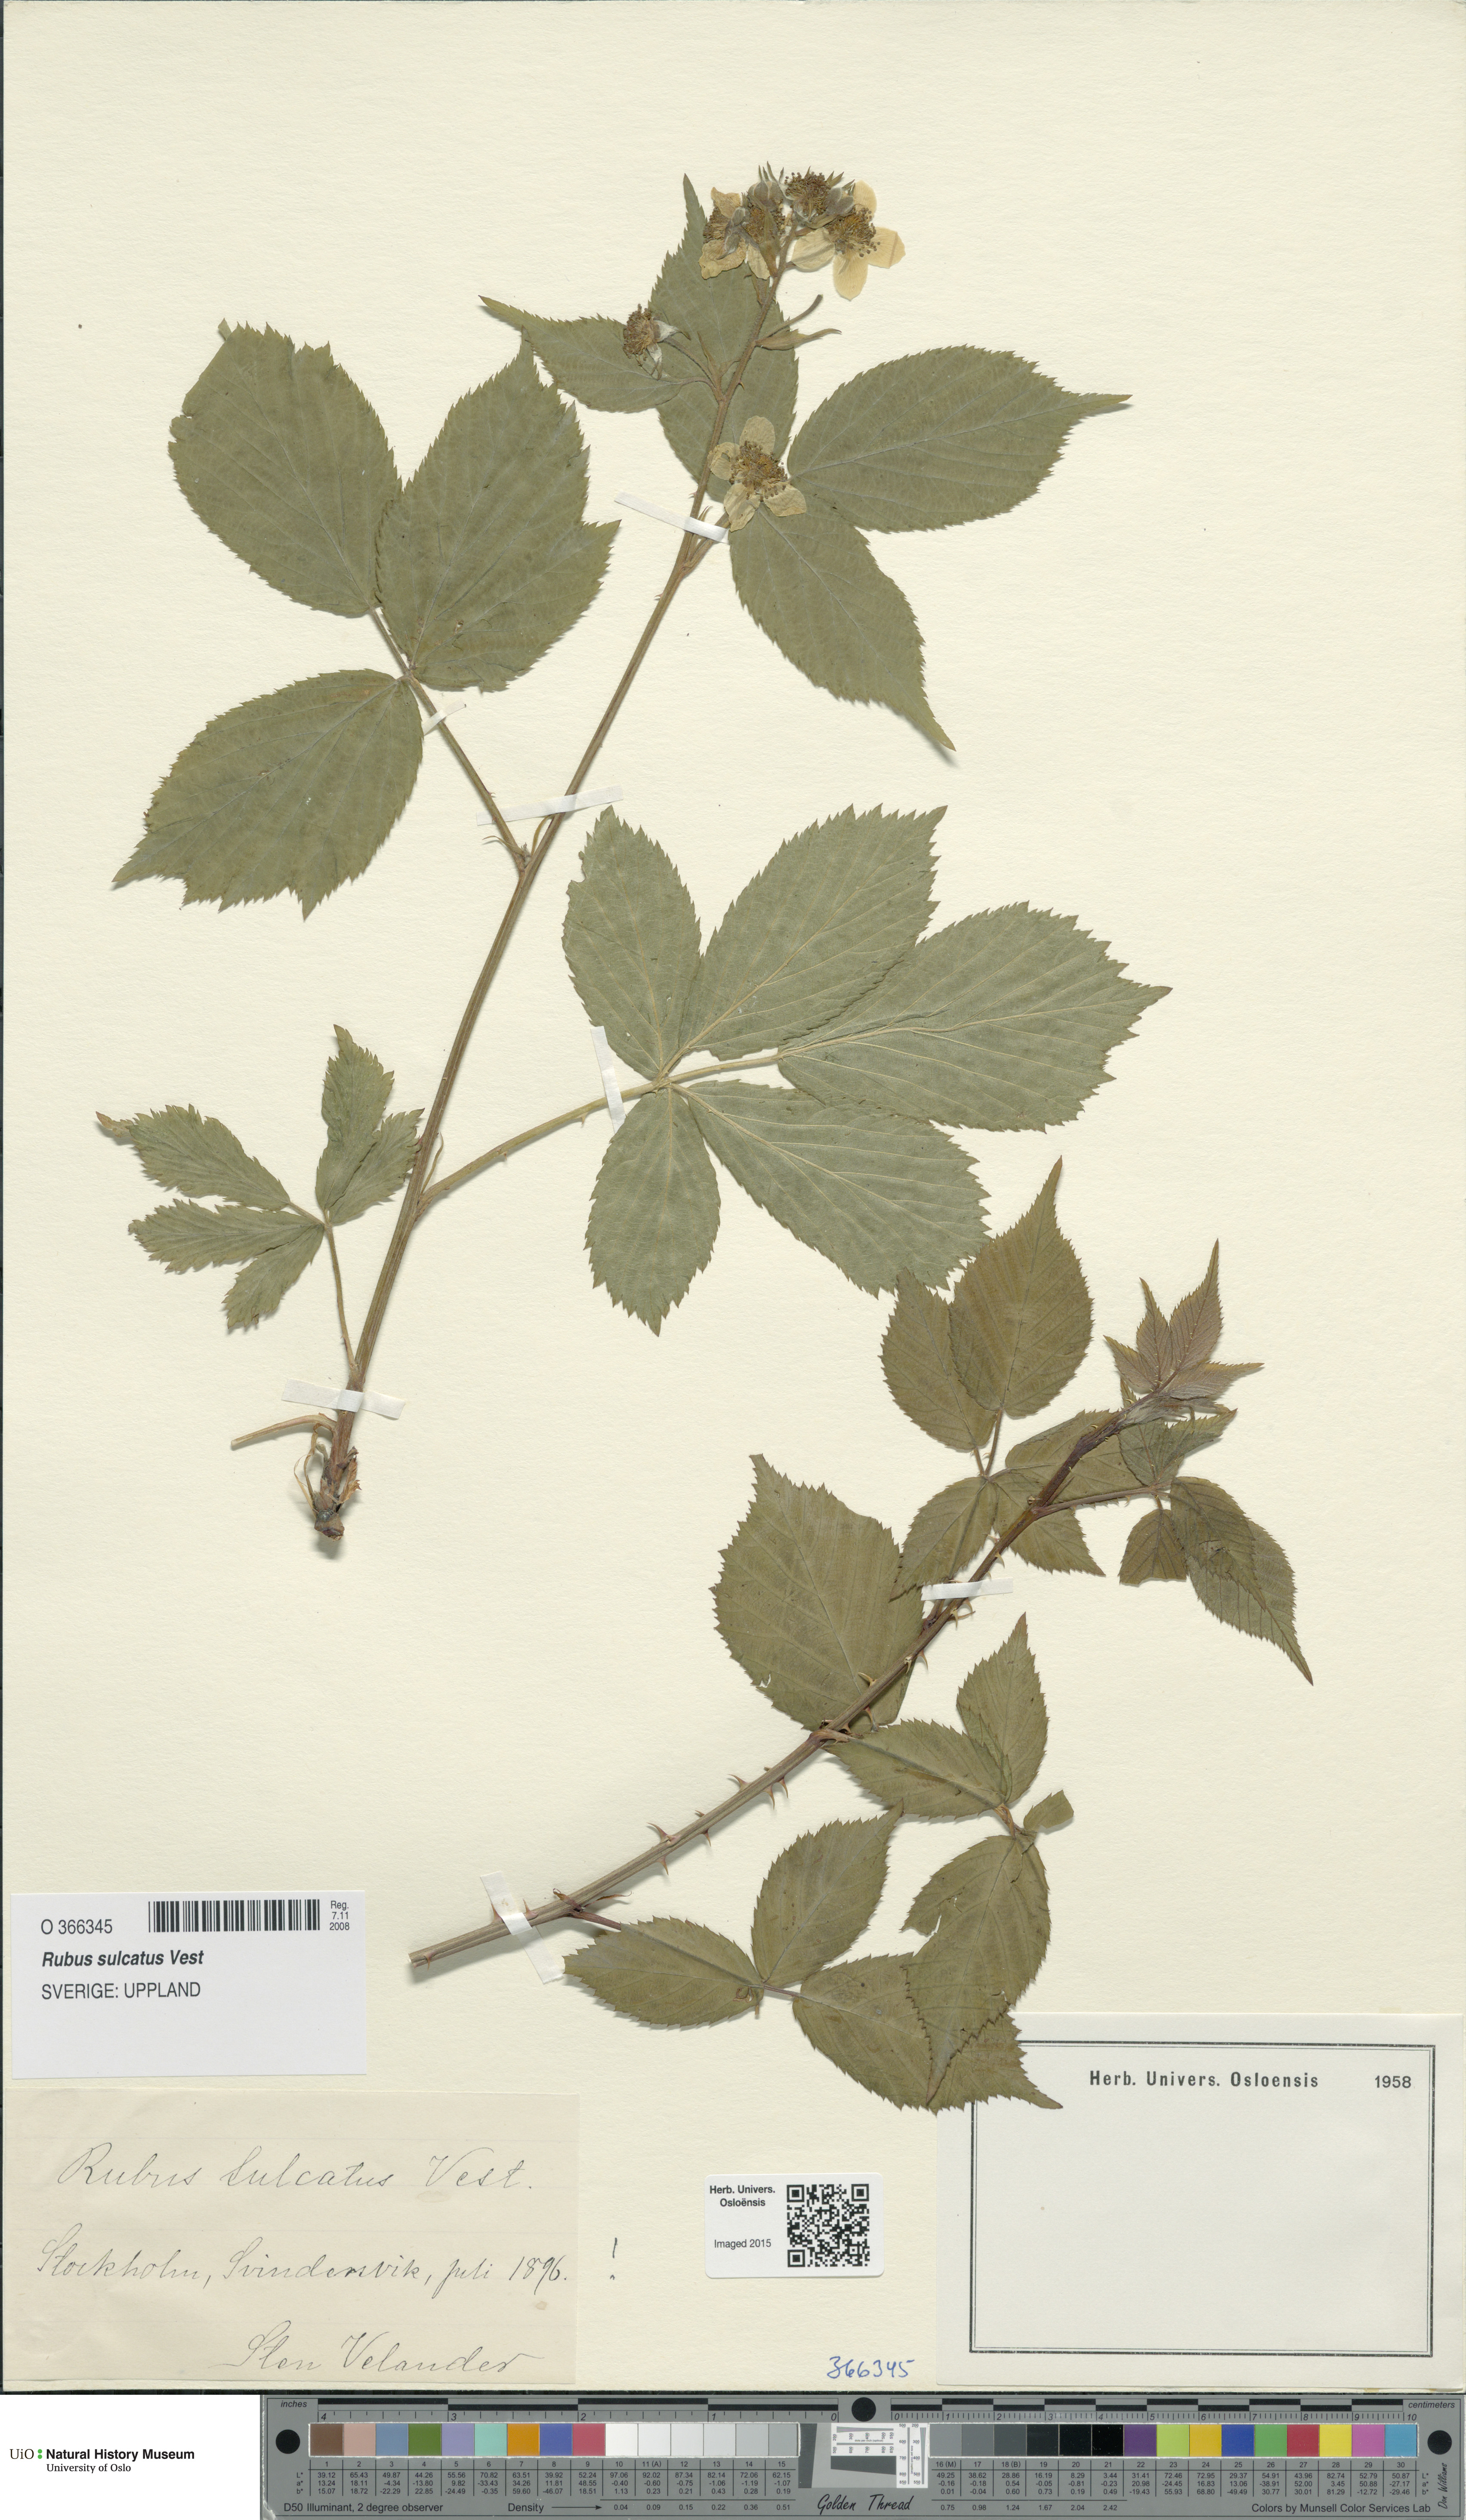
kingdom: Plantae
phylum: Tracheophyta
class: Magnoliopsida
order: Rosales
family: Rosaceae
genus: Rubus
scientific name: Rubus sulcatus
